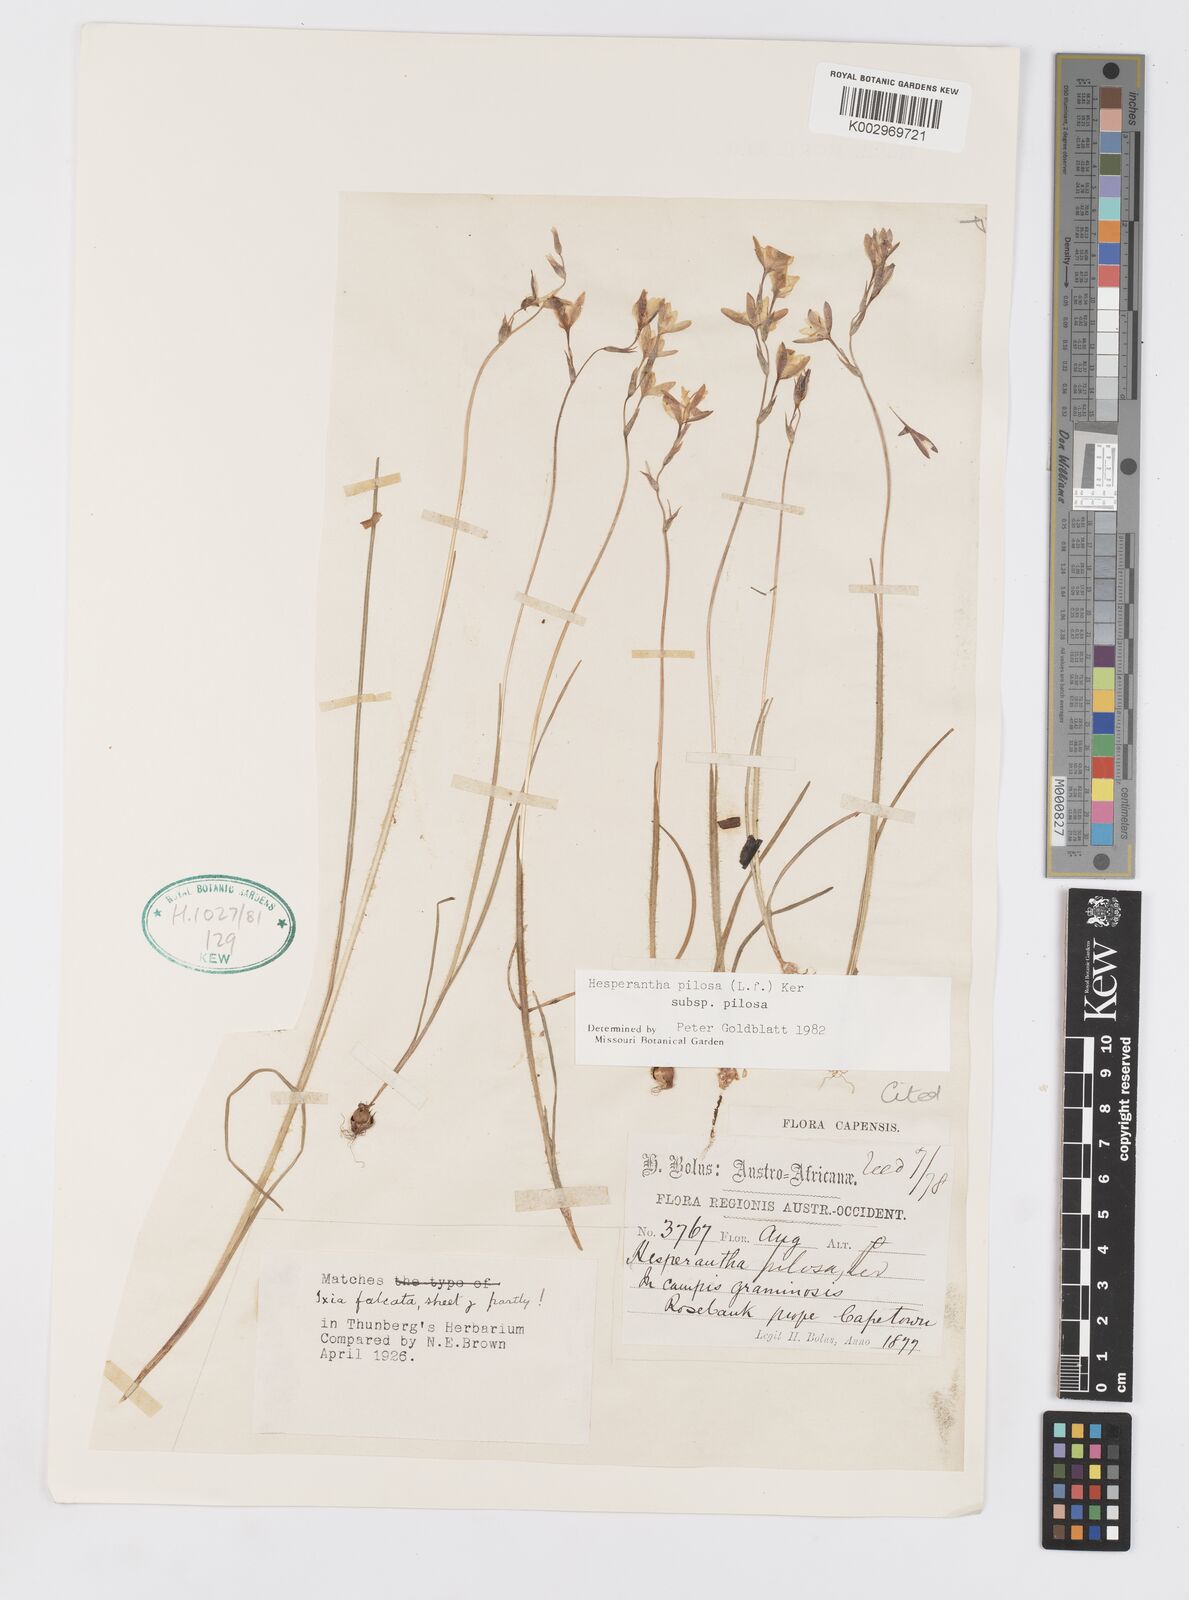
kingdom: Plantae
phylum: Tracheophyta
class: Liliopsida
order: Asparagales
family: Iridaceae
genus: Hesperantha
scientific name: Hesperantha pilosa
